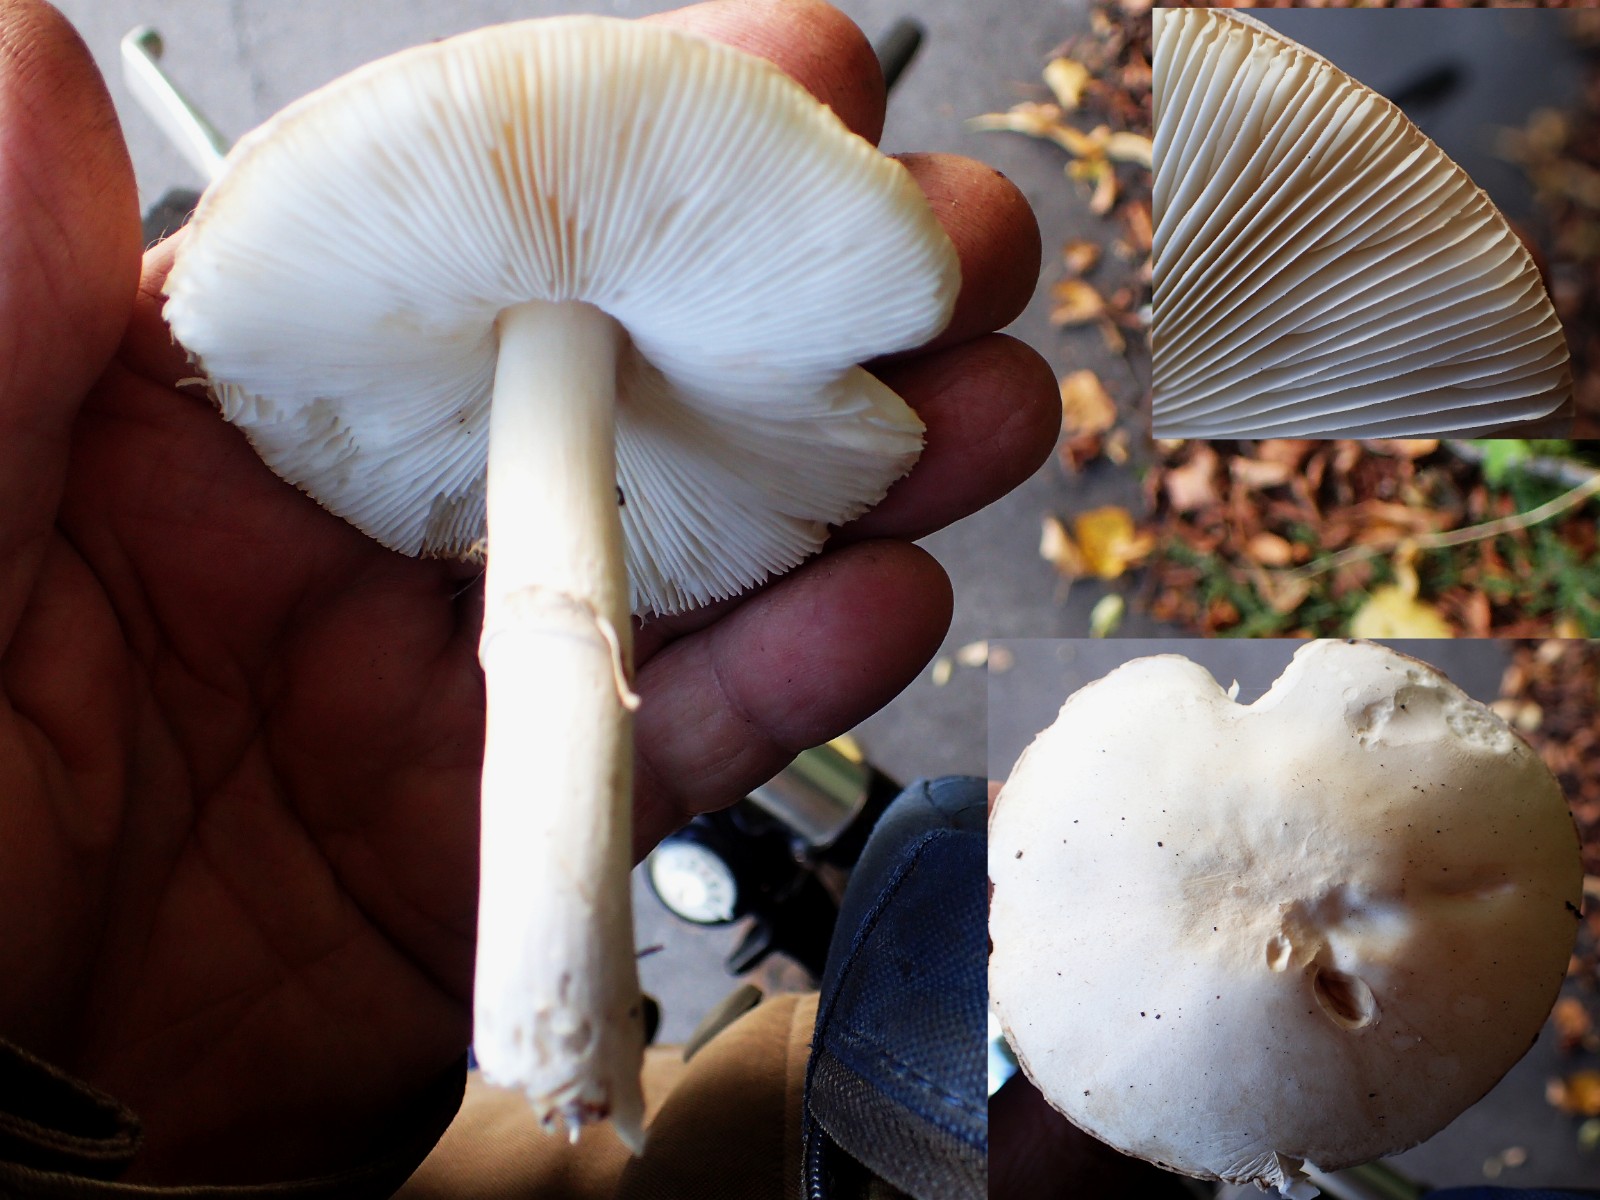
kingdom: Fungi
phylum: Basidiomycota
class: Agaricomycetes
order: Agaricales
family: Agaricaceae
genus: Leucoagaricus
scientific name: Leucoagaricus leucothites
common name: rosabladet silkehat
